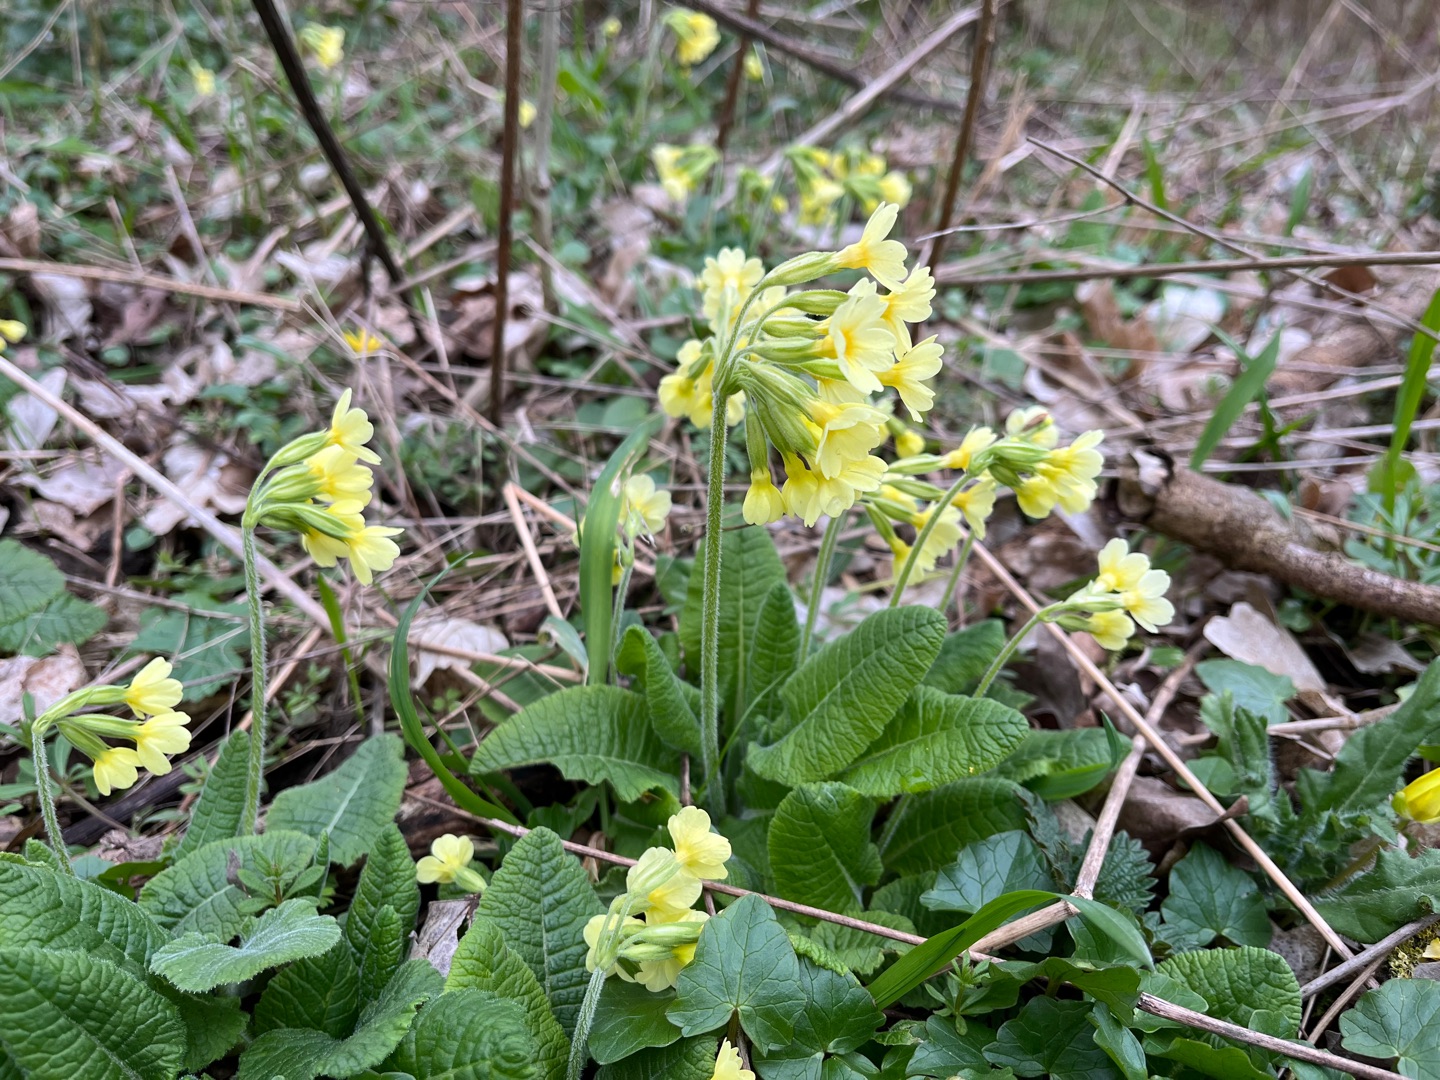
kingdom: Plantae
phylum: Tracheophyta
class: Magnoliopsida
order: Ericales
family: Primulaceae
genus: Primula
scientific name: Primula elatior
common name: Fladkravet kodriver
